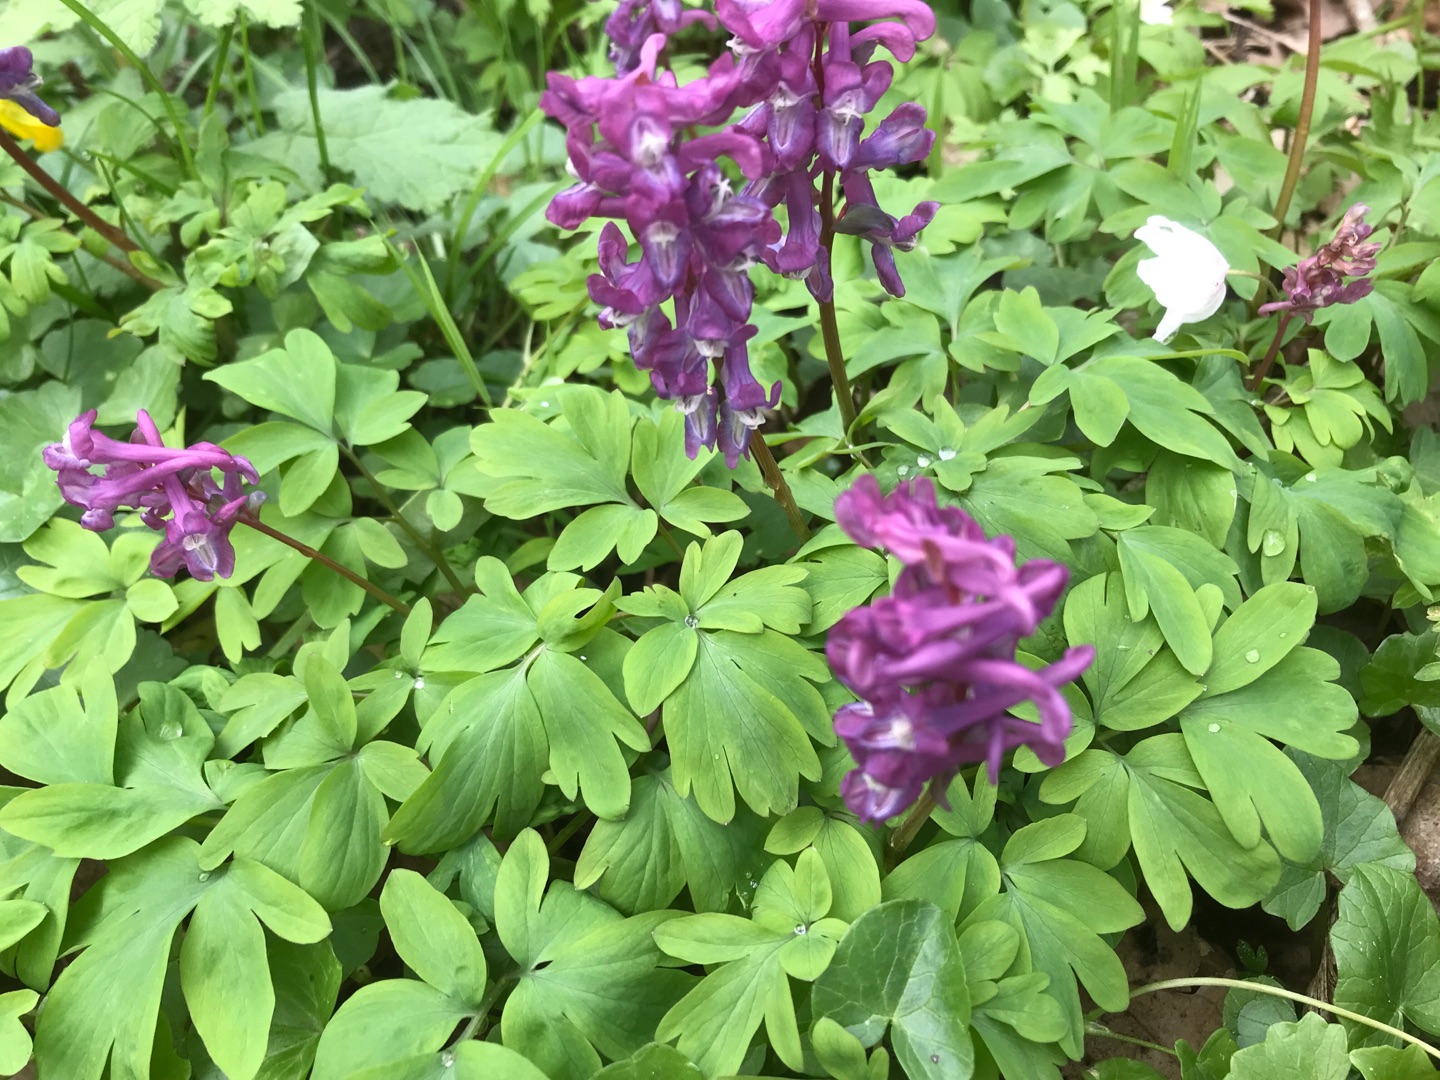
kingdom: Plantae
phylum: Tracheophyta
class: Magnoliopsida
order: Ranunculales
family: Papaveraceae
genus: Corydalis
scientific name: Corydalis cava
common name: Hulrodet lærkespore
